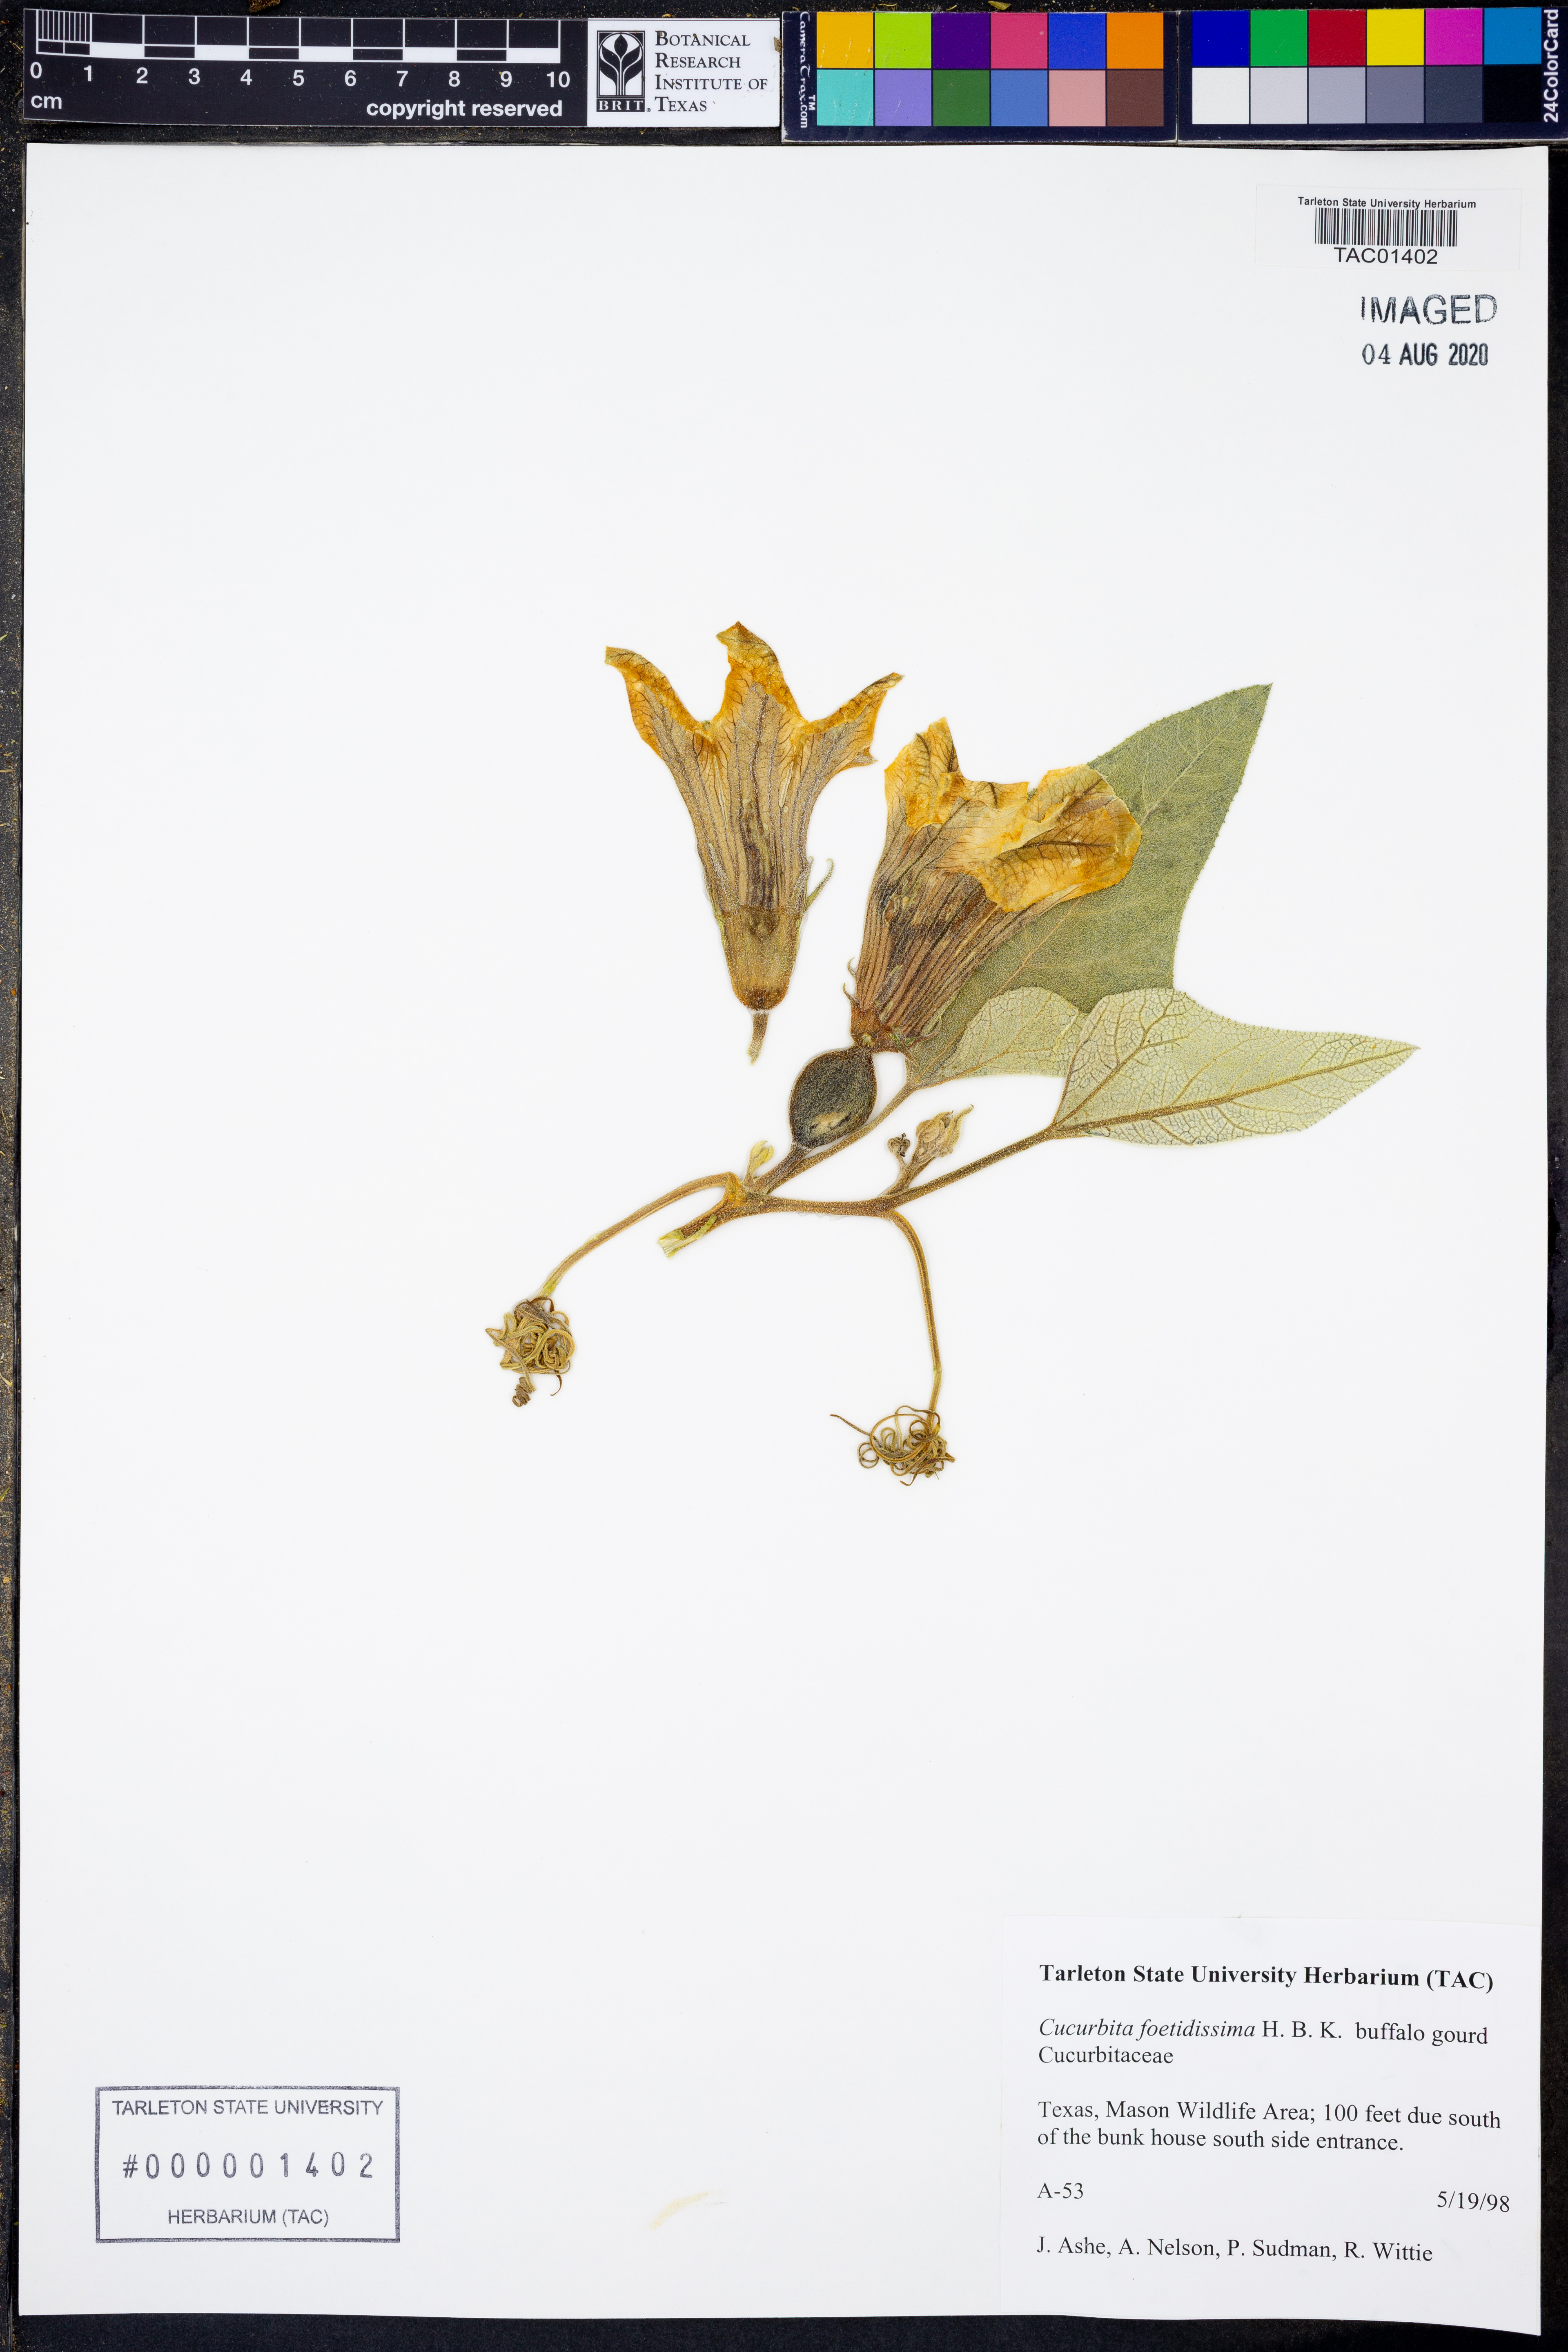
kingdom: Plantae
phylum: Tracheophyta
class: Magnoliopsida
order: Cucurbitales
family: Cucurbitaceae
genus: Cucurbita
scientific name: Cucurbita foetidissima
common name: Buffalo gourd
